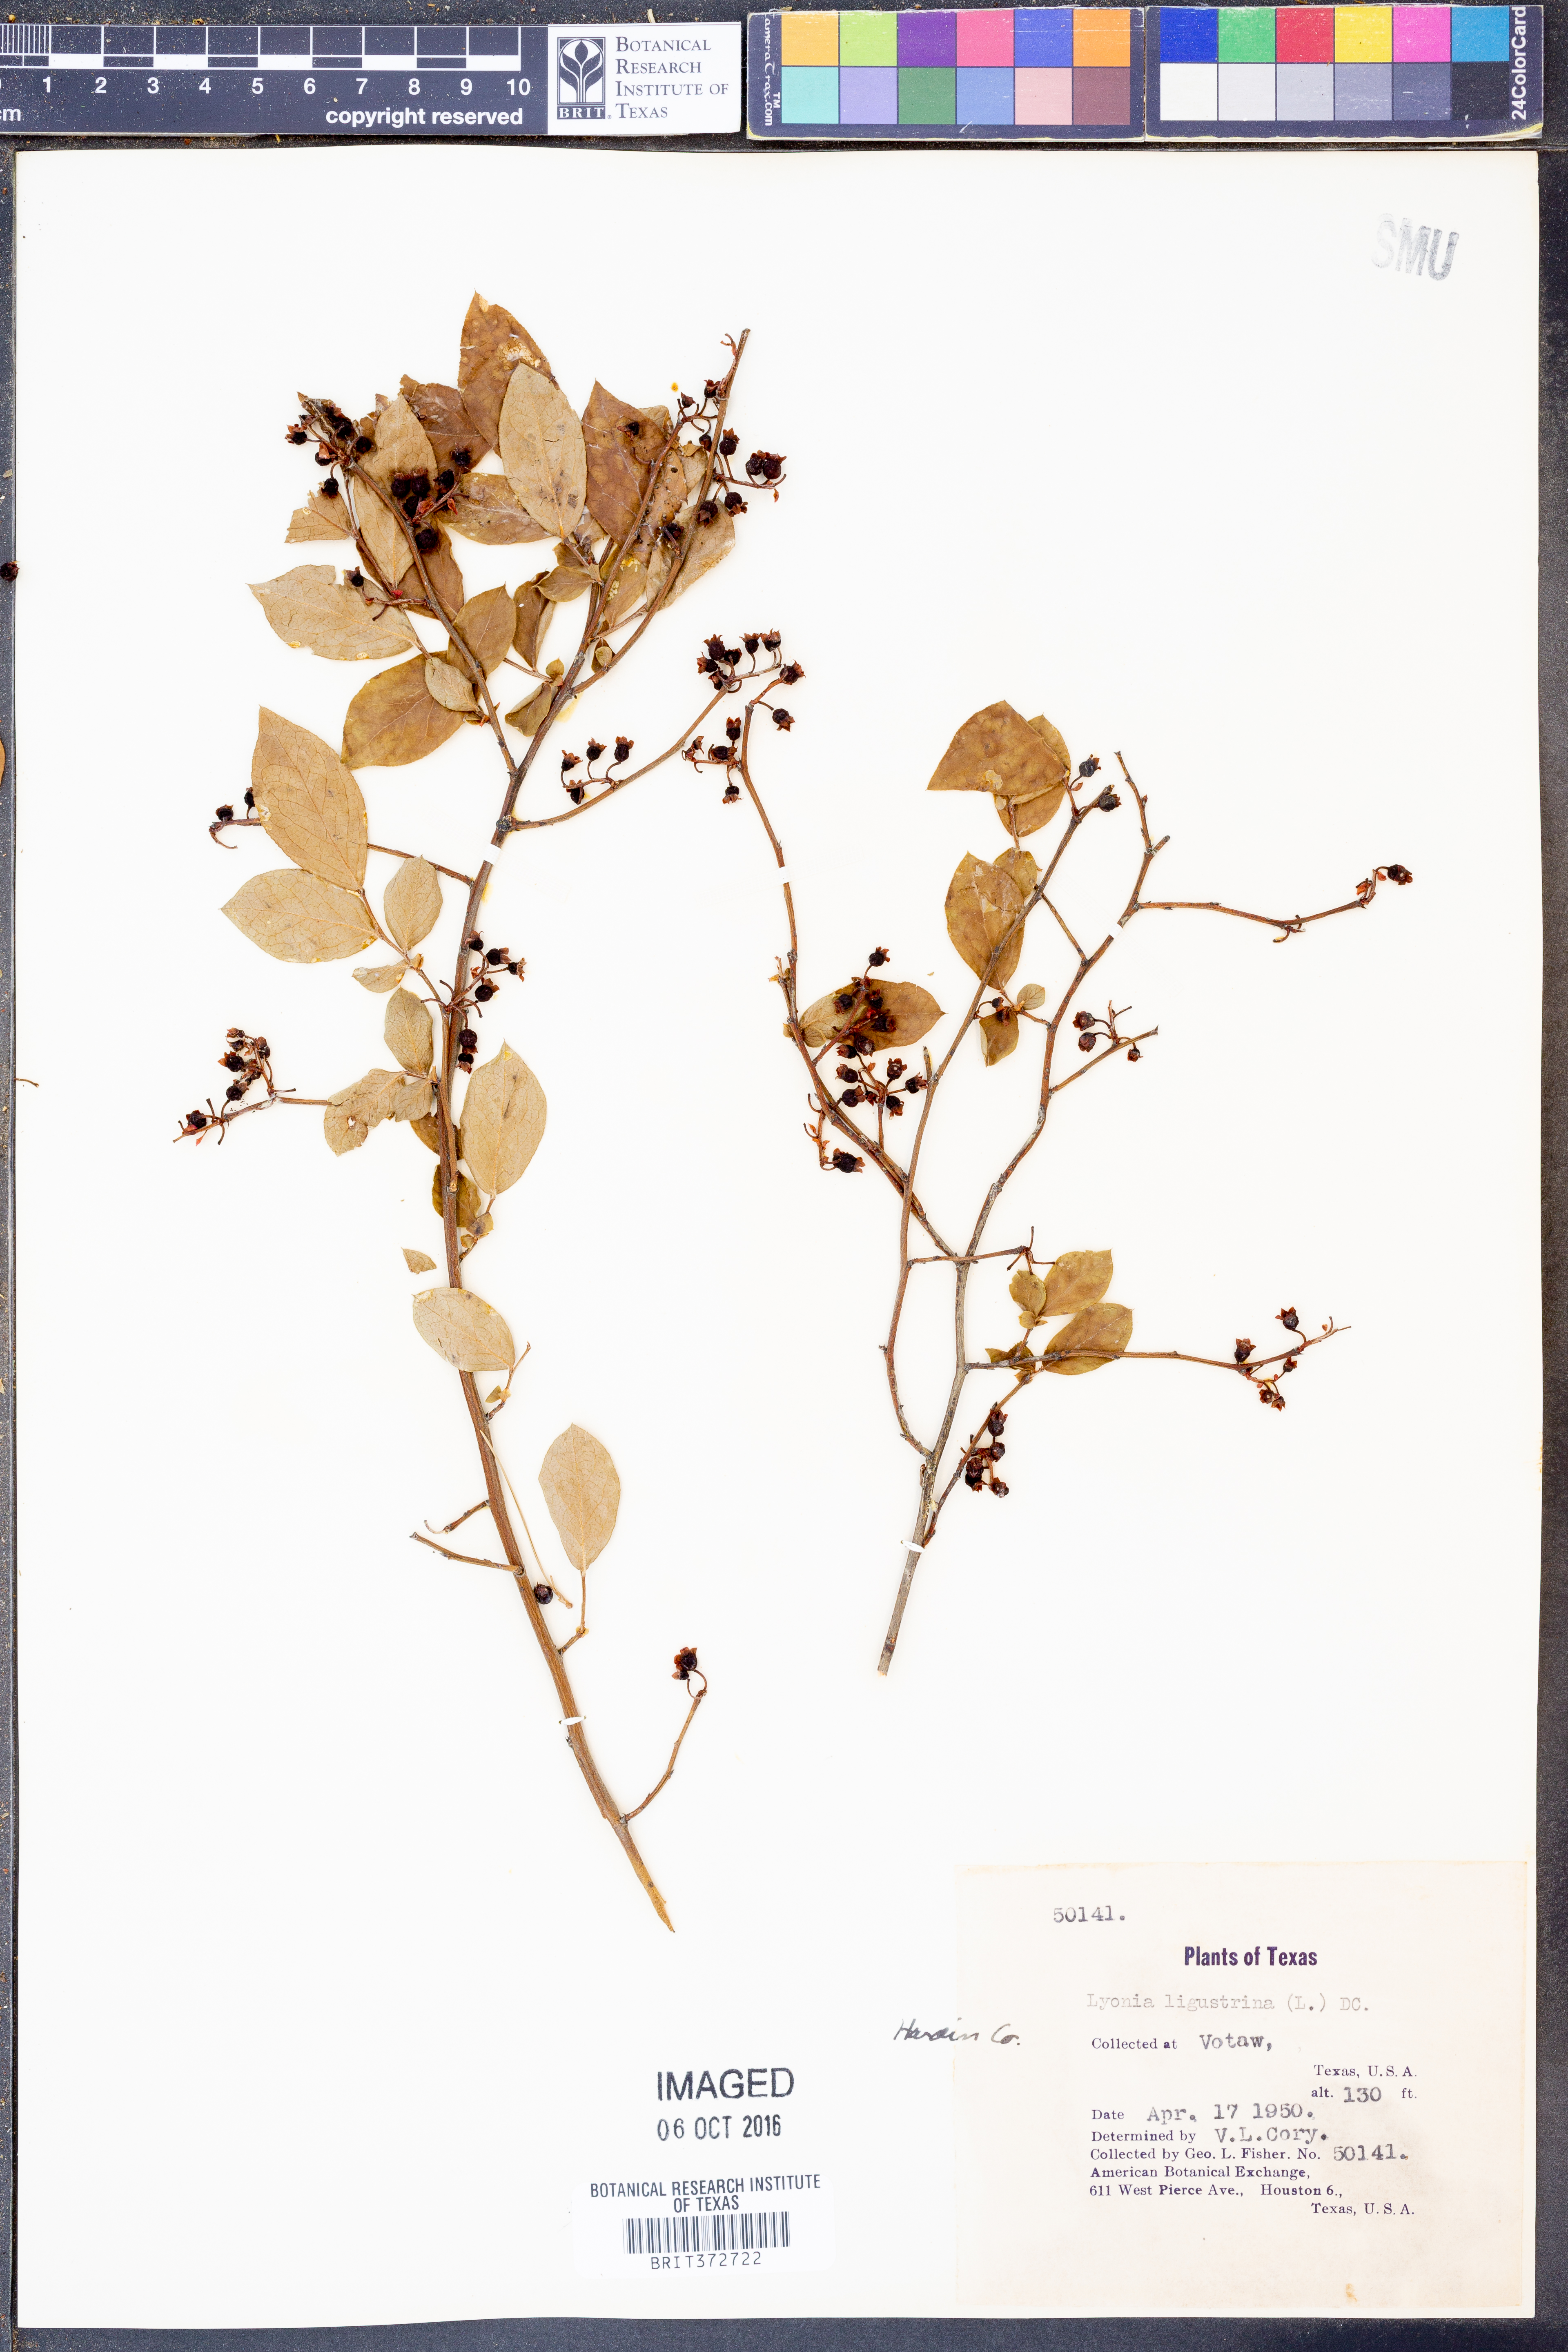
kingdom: Plantae
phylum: Tracheophyta
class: Magnoliopsida
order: Ericales
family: Ericaceae
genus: Vaccinium
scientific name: Vaccinium corymbosum
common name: Blueberry
